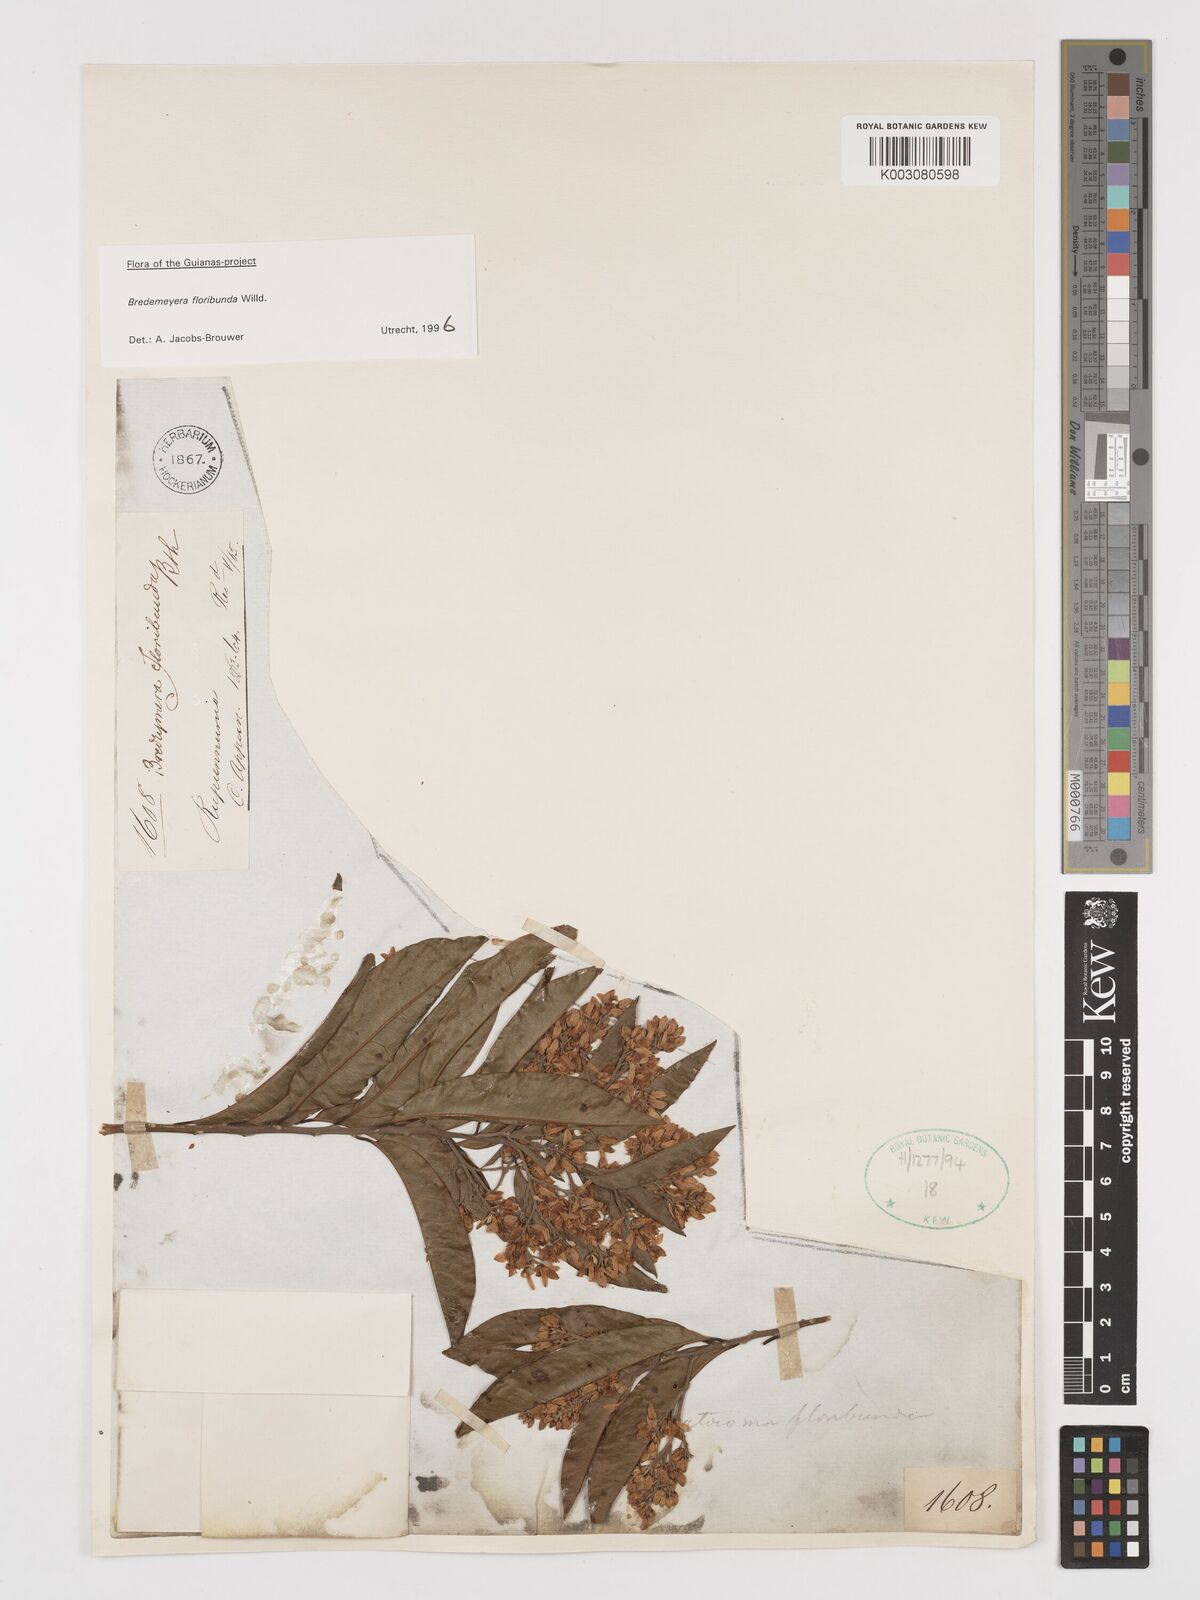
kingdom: Plantae
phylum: Tracheophyta
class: Magnoliopsida
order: Fabales
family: Polygalaceae
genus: Bredemeyera
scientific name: Bredemeyera floribunda
